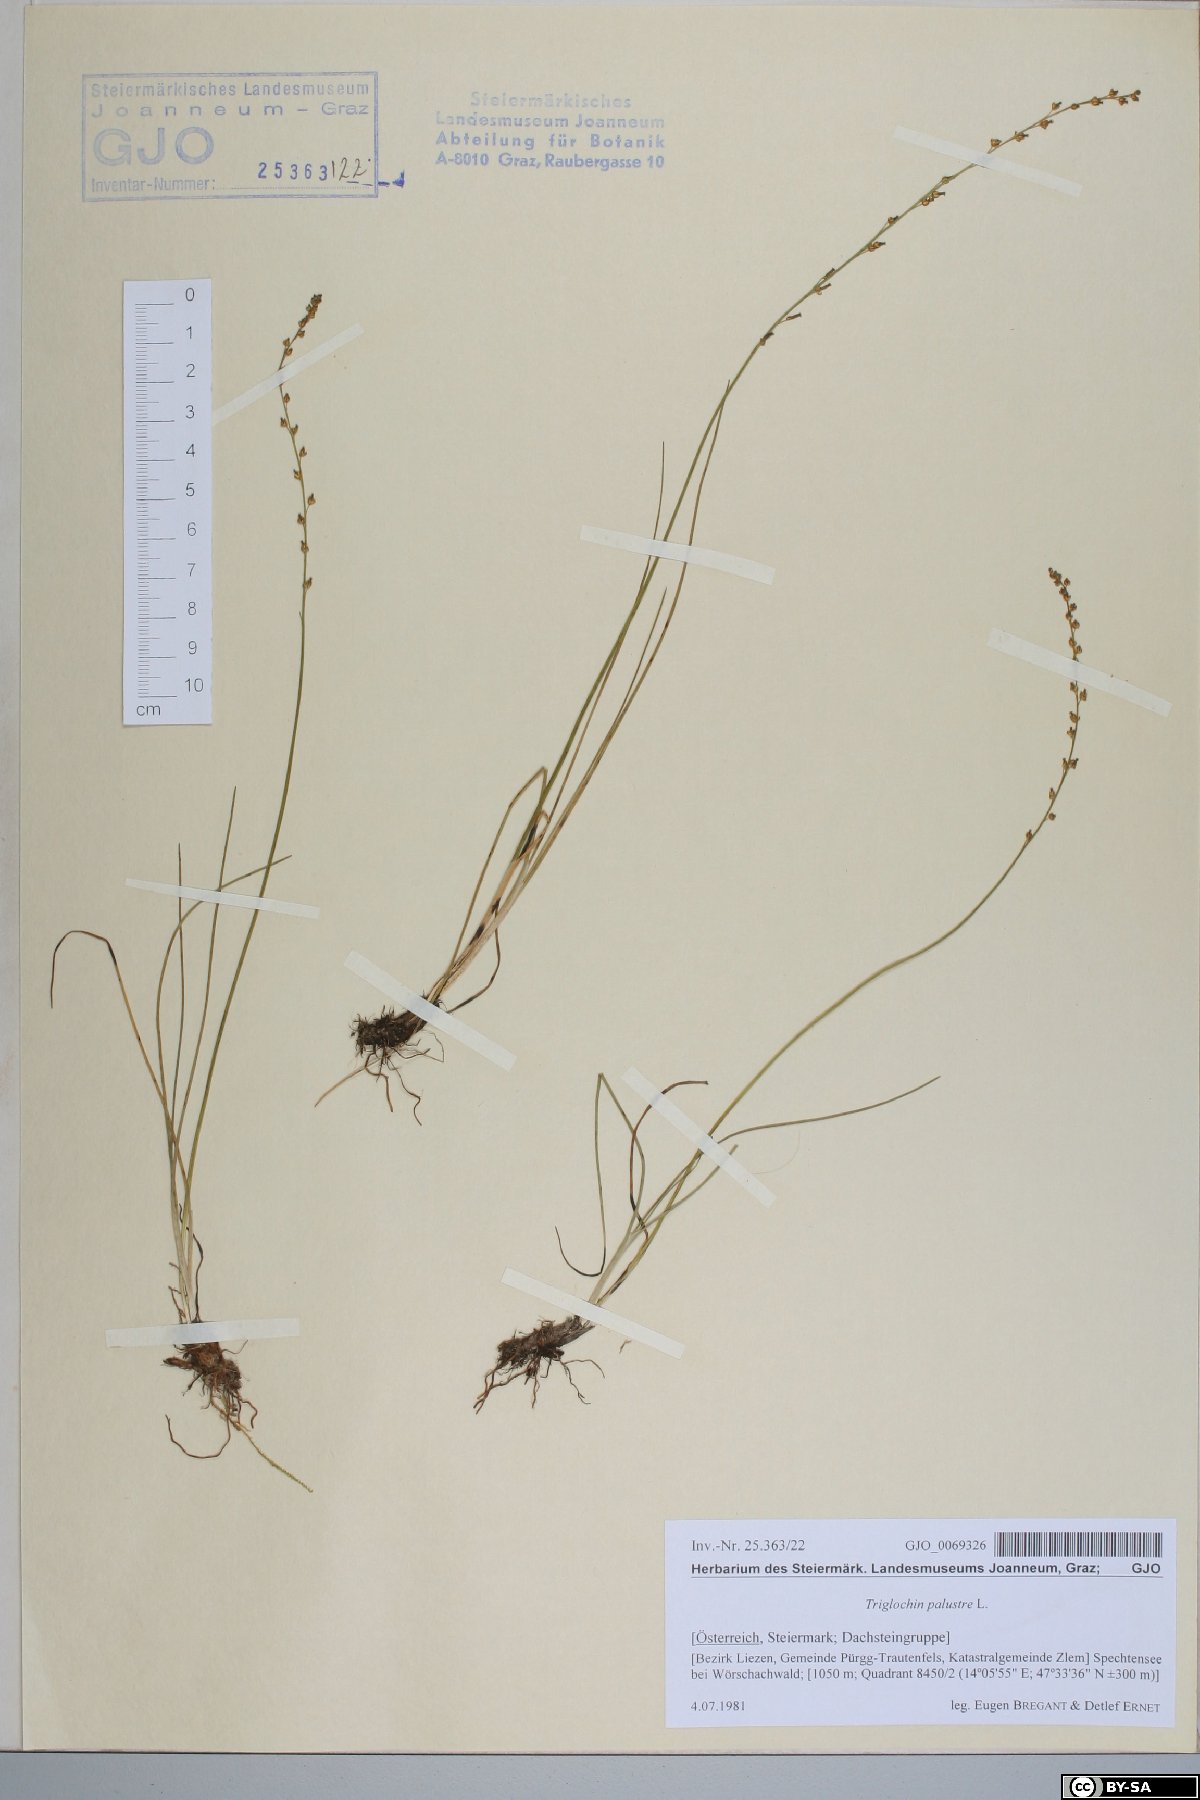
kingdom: Plantae
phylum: Tracheophyta
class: Liliopsida
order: Alismatales
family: Juncaginaceae
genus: Triglochin
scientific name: Triglochin palustris
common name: Marsh arrowgrass
